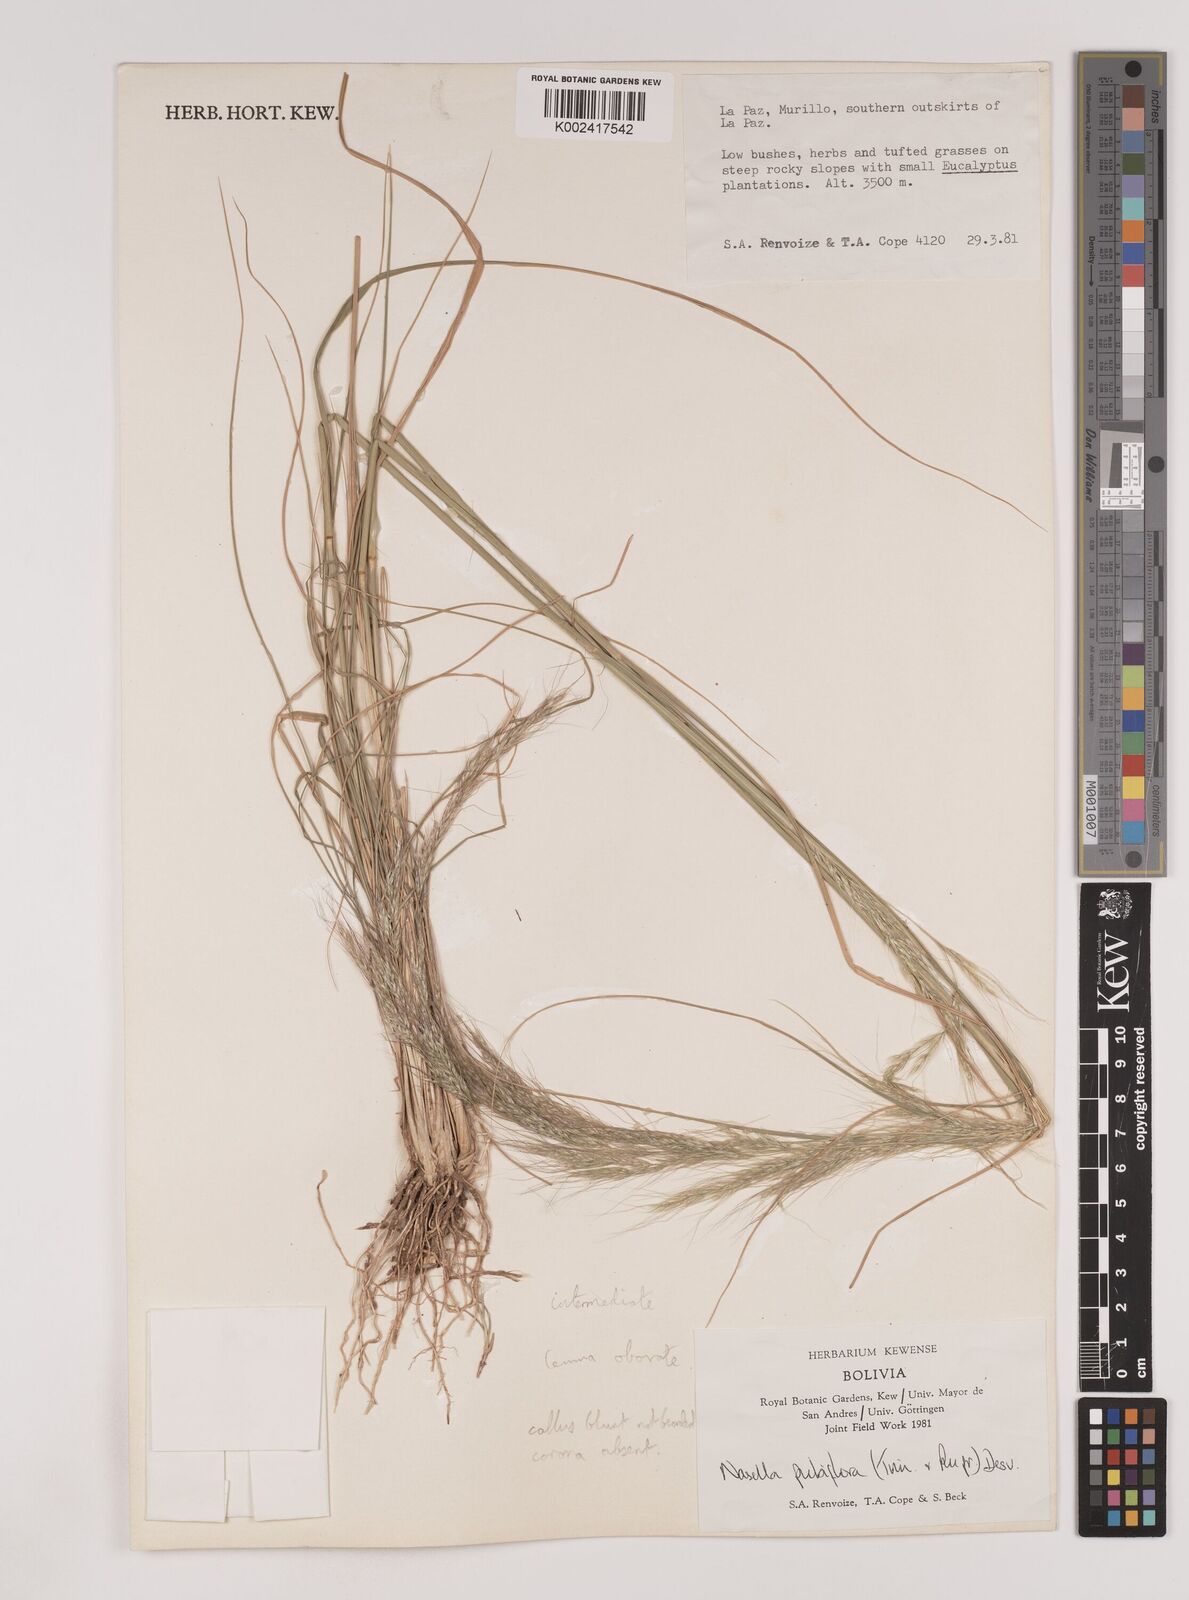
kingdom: Plantae
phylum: Tracheophyta
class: Liliopsida
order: Poales
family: Poaceae
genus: Nassella
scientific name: Nassella pubiflora
